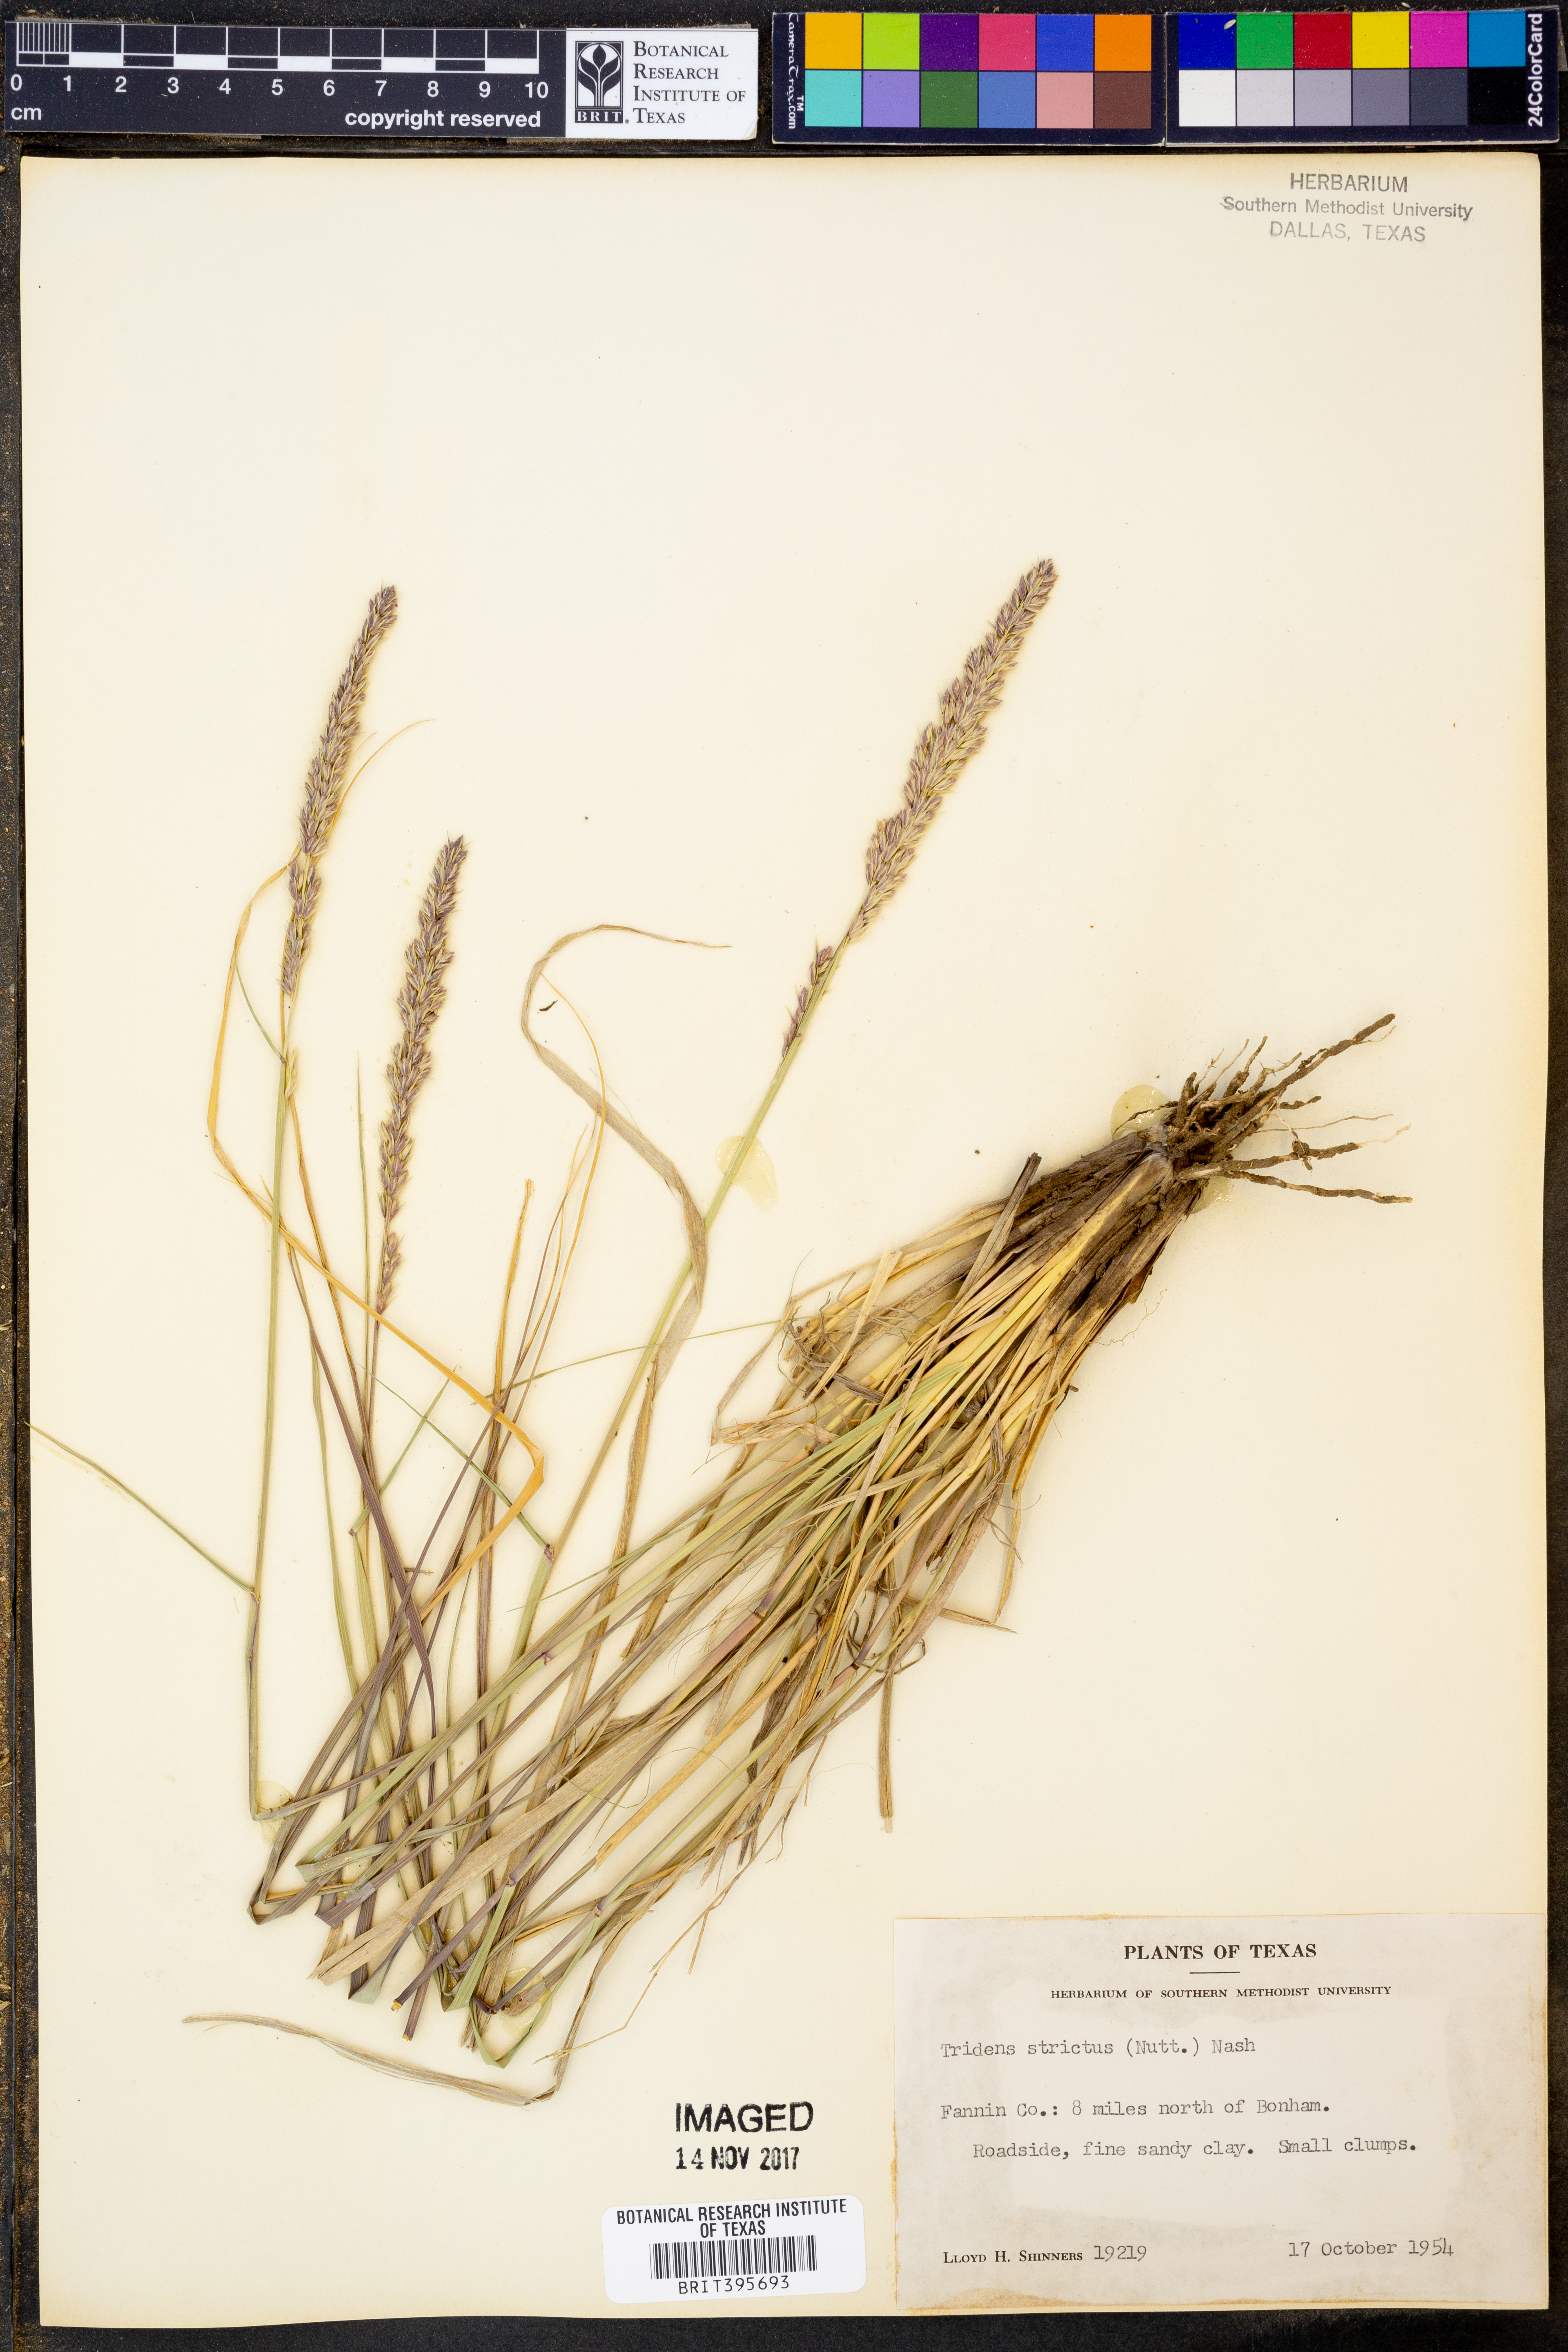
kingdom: Plantae
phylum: Tracheophyta
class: Liliopsida
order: Poales
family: Poaceae
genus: Tridens
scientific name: Tridens strictus
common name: Long-spike tridens
